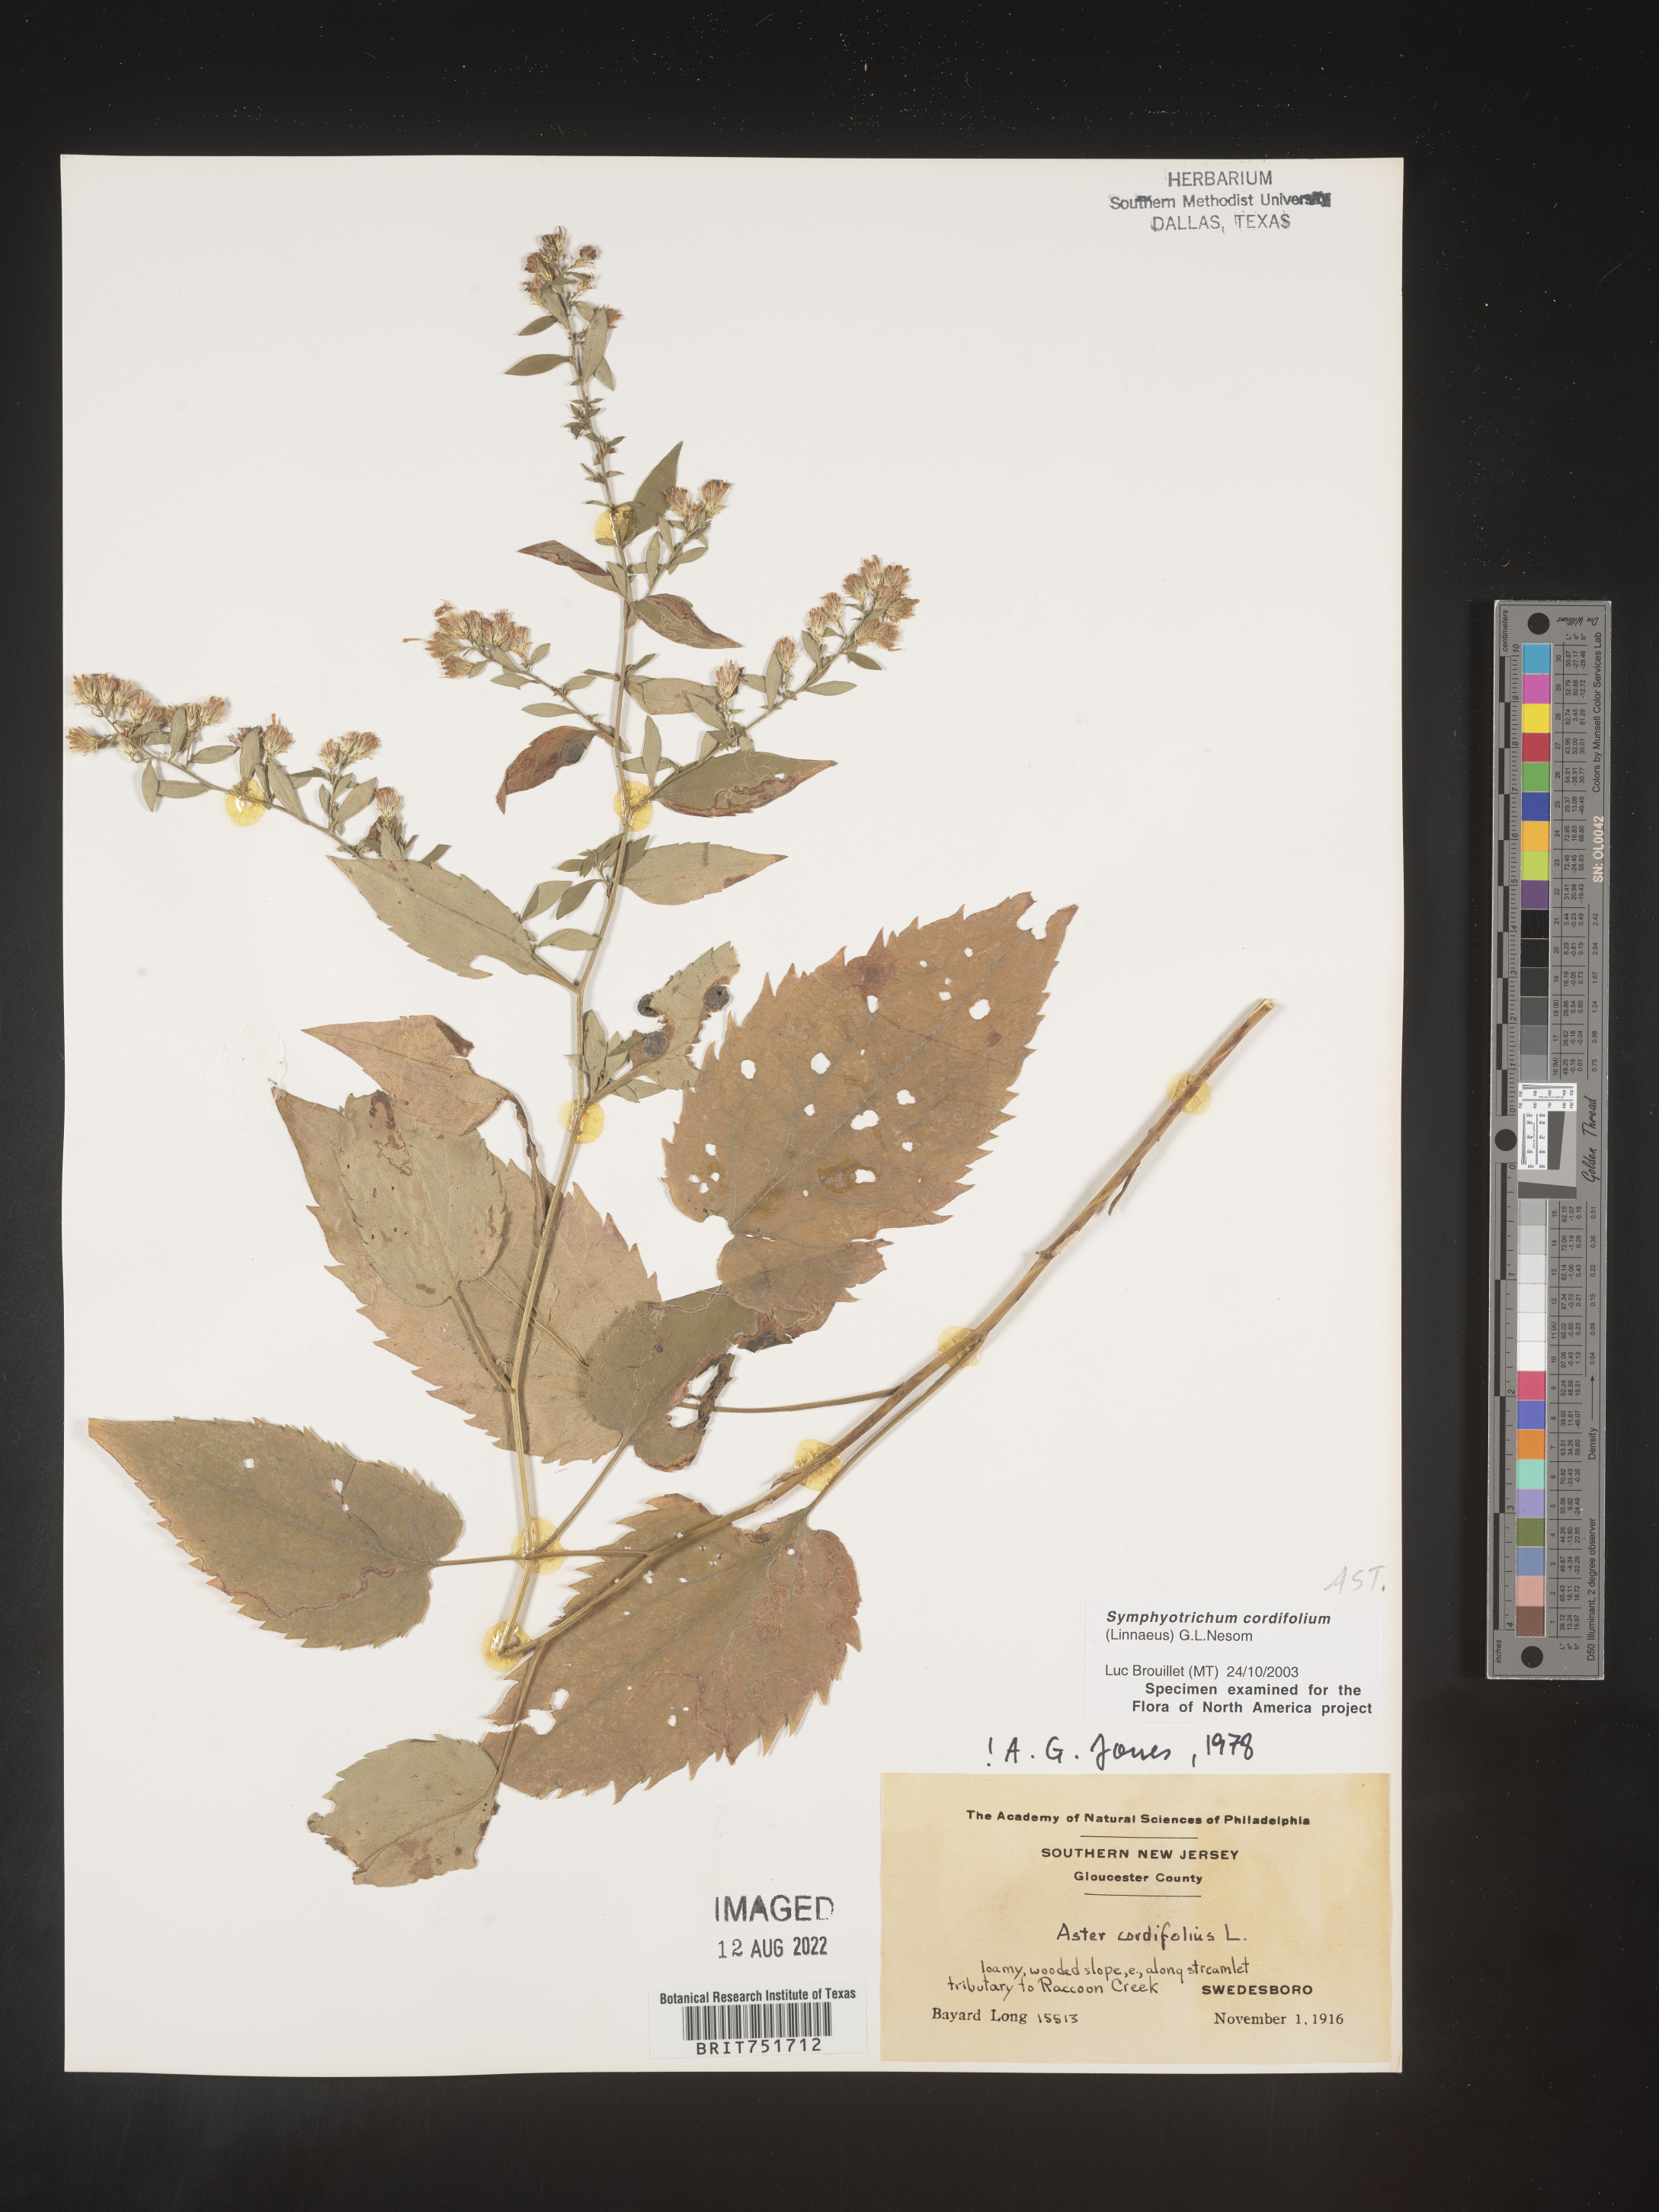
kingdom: Plantae
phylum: Tracheophyta
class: Magnoliopsida
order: Asterales
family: Asteraceae
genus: Symphyotrichum
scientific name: Symphyotrichum cordifolium
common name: Beeweed
